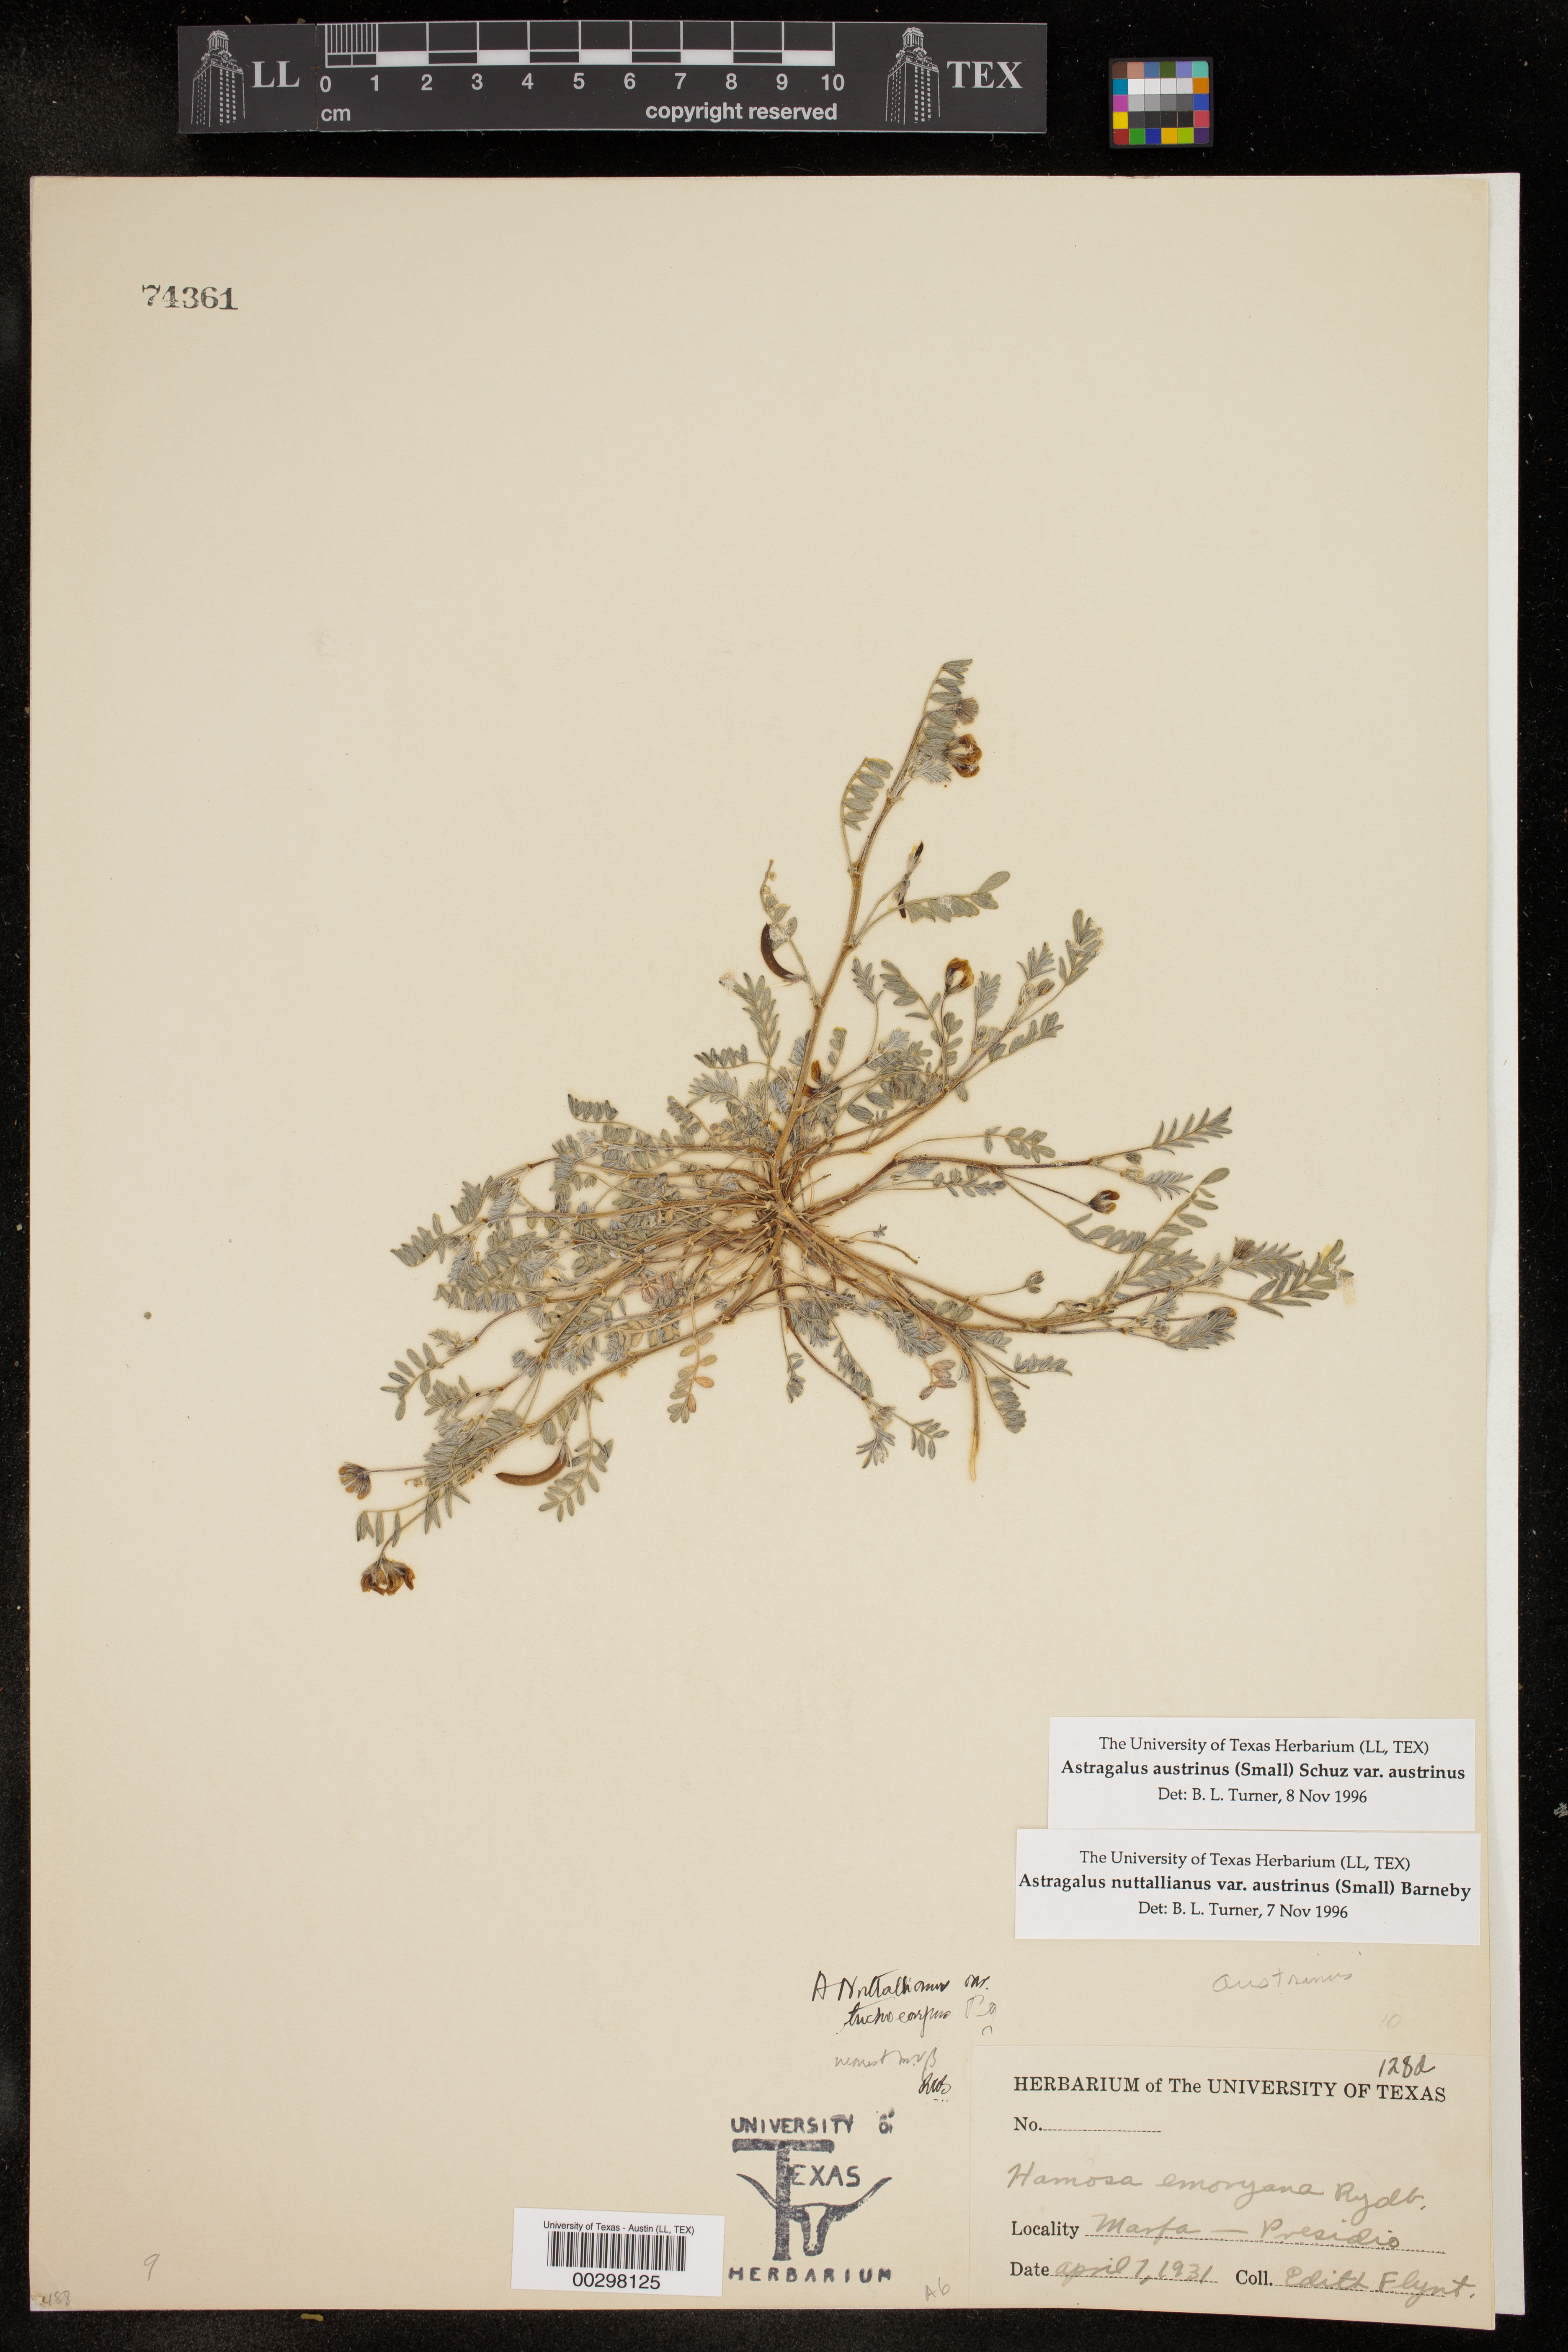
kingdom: Plantae
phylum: Tracheophyta
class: Magnoliopsida
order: Fabales
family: Fabaceae
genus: Astragalus
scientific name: Astragalus nuttallianus
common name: Smallflowered milkvetch
